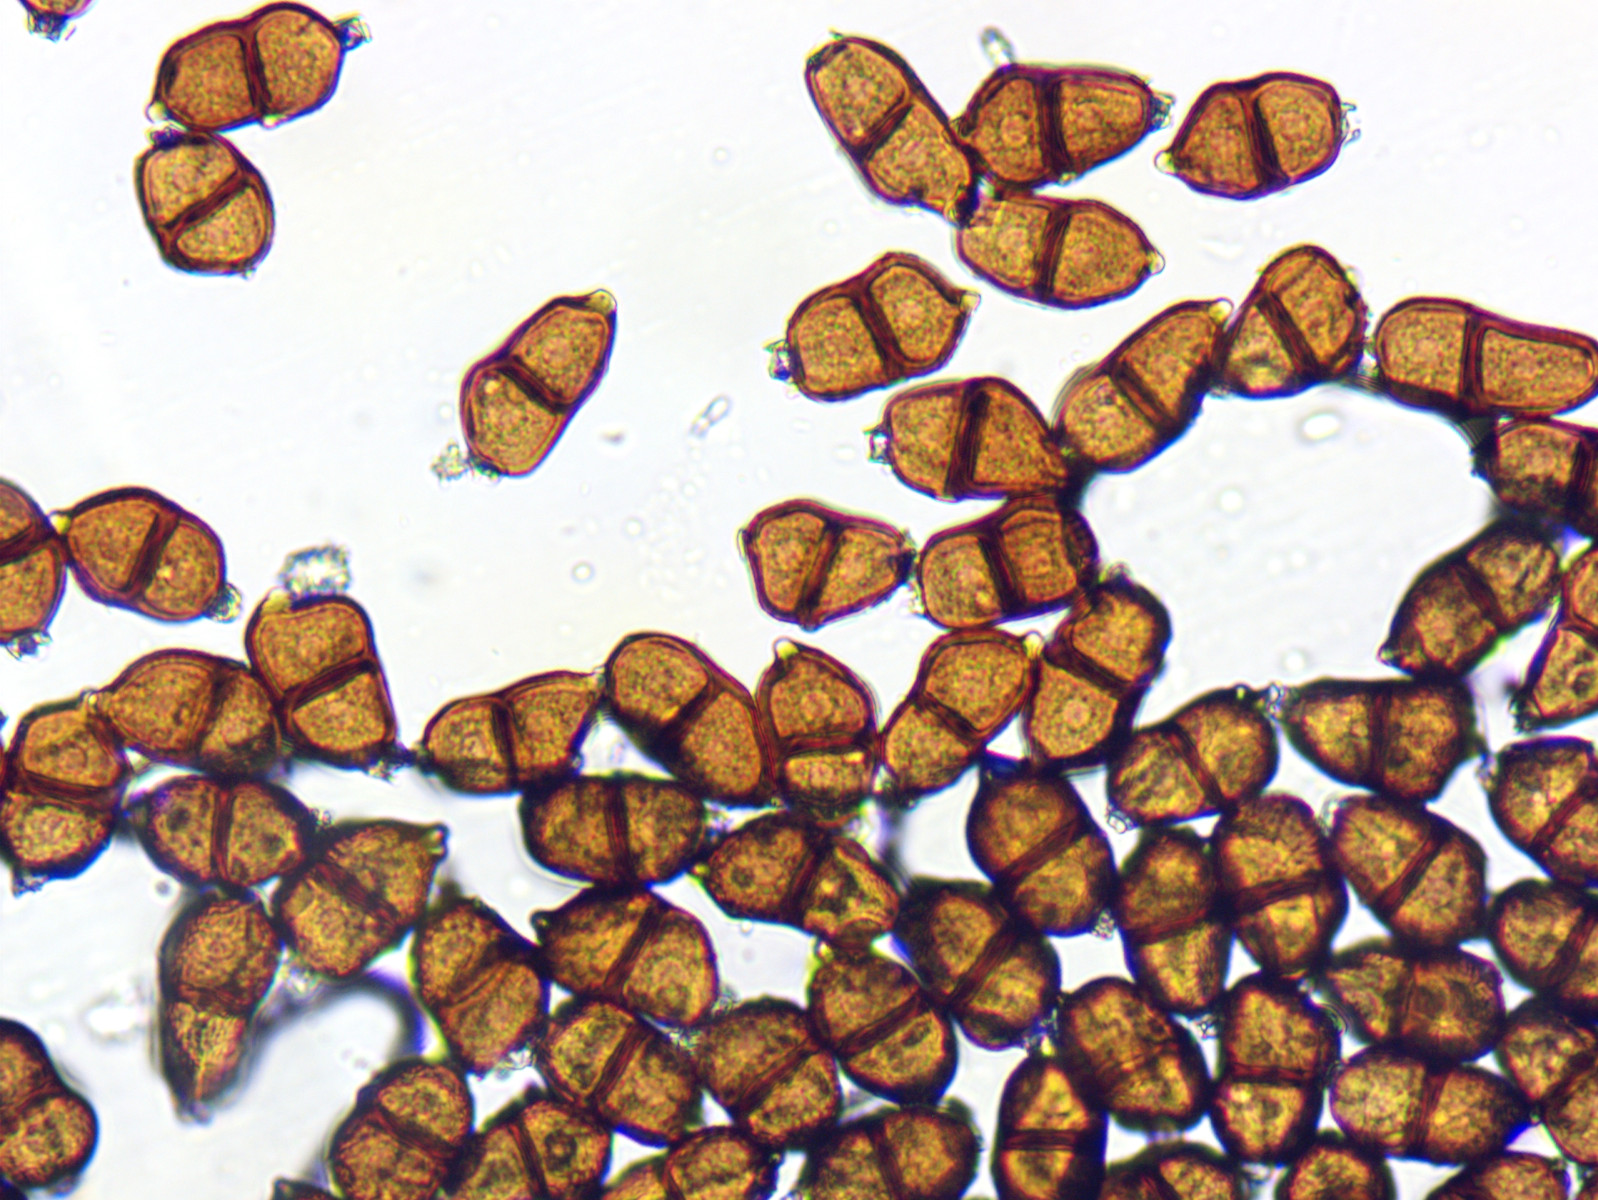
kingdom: Fungi
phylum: Basidiomycota
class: Pucciniomycetes
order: Pucciniales
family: Pucciniaceae
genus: Puccinia
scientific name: Puccinia komarovii
